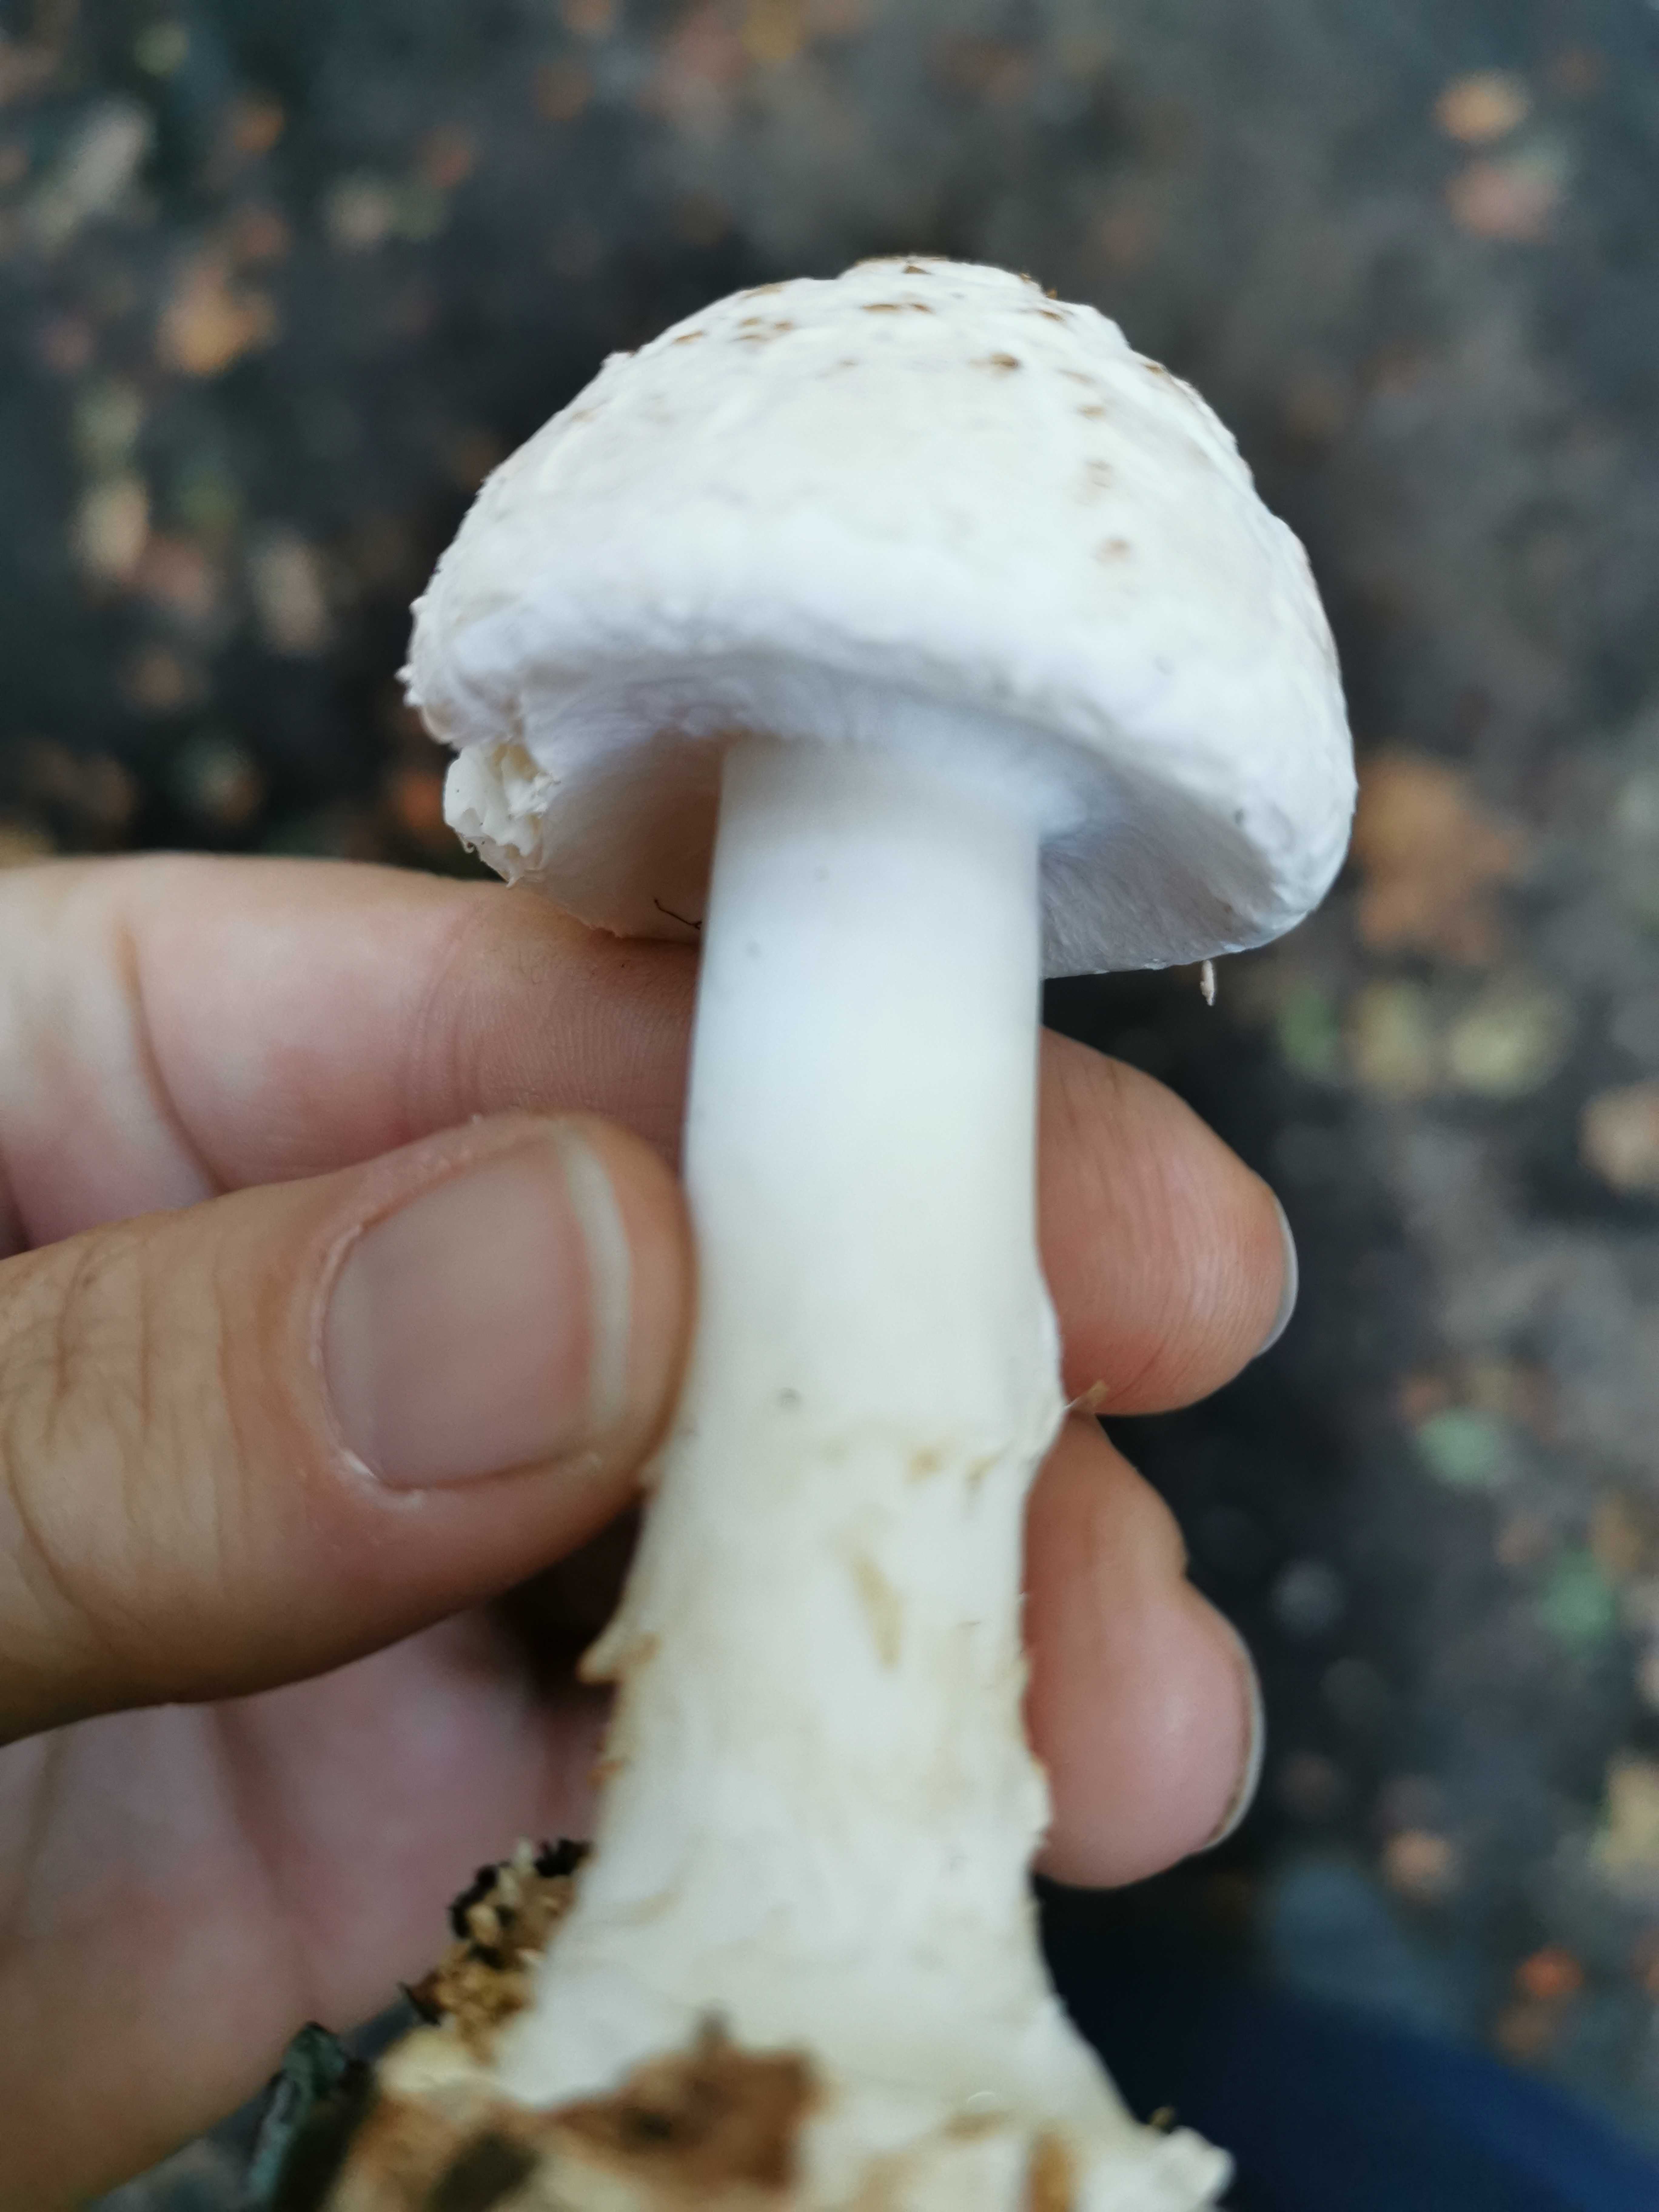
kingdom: Fungi
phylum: Basidiomycota
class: Agaricomycetes
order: Agaricales
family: Amanitaceae
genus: Amanita
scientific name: Amanita citrina
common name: False death-cap
